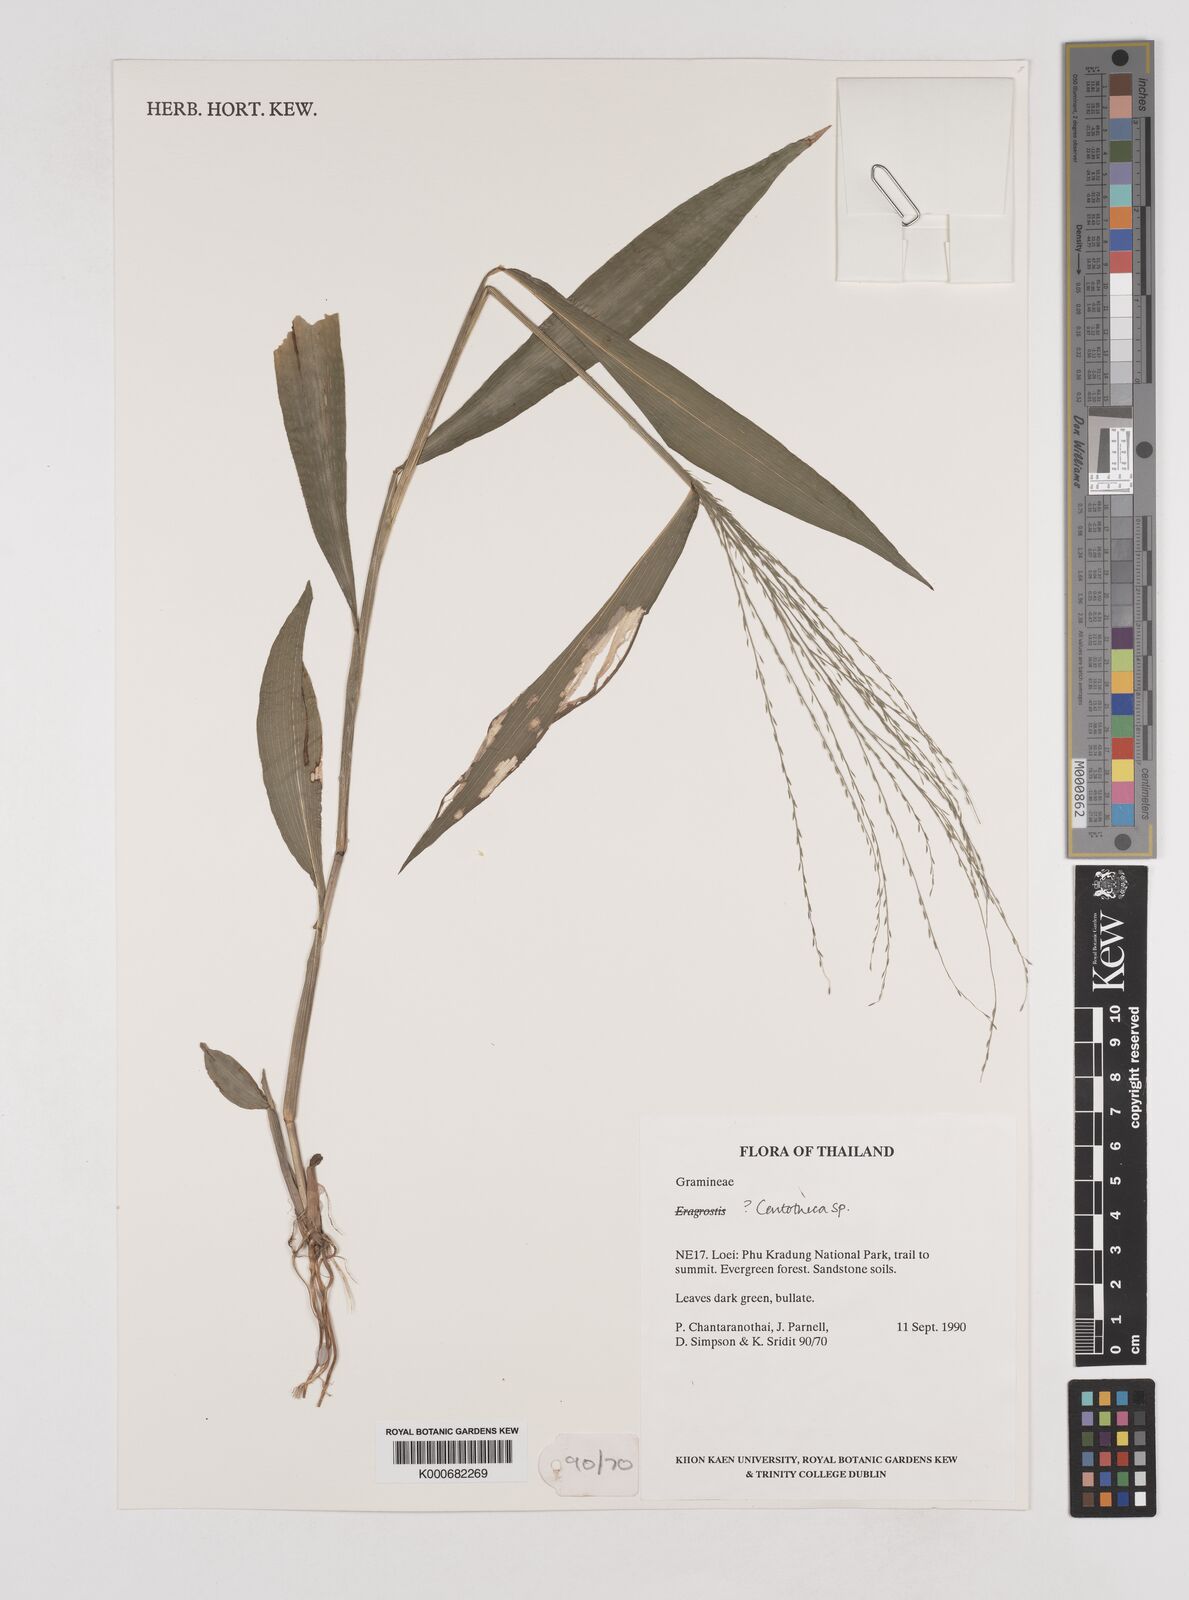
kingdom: Plantae
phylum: Tracheophyta
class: Liliopsida
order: Poales
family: Poaceae
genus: Centotheca
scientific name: Centotheca
